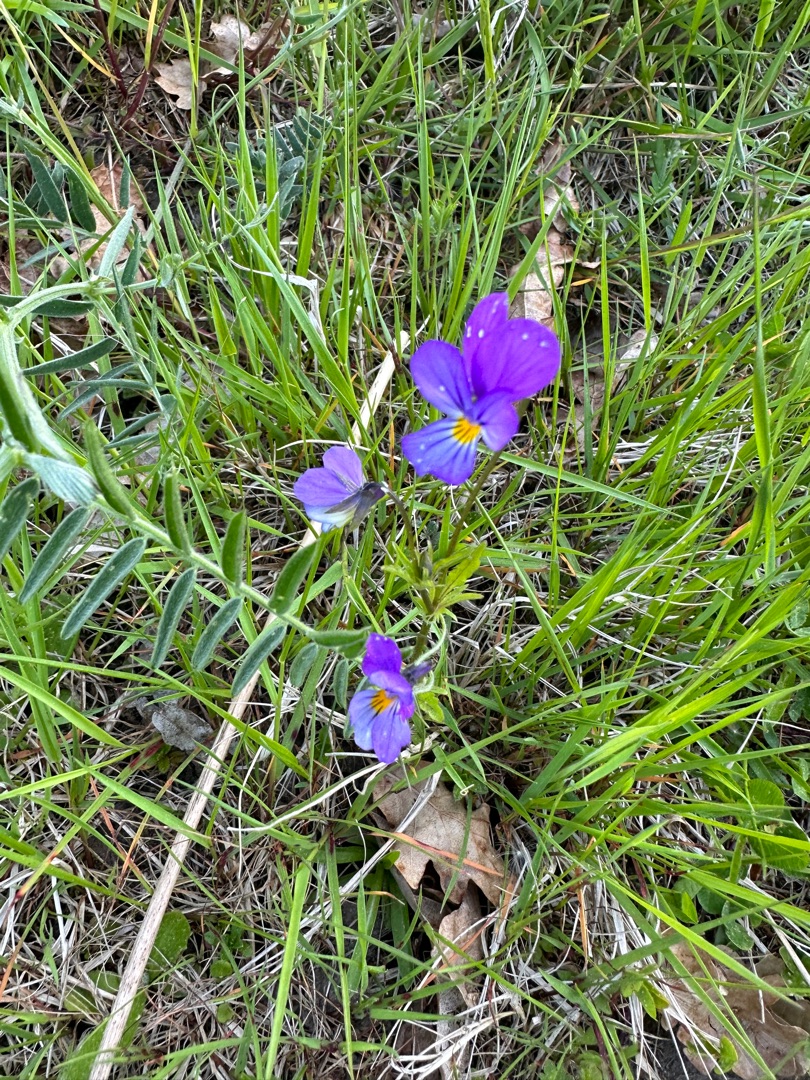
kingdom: Plantae
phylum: Tracheophyta
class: Magnoliopsida
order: Malpighiales
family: Violaceae
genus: Viola
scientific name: Viola tricolor
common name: Stedmoderblomst
